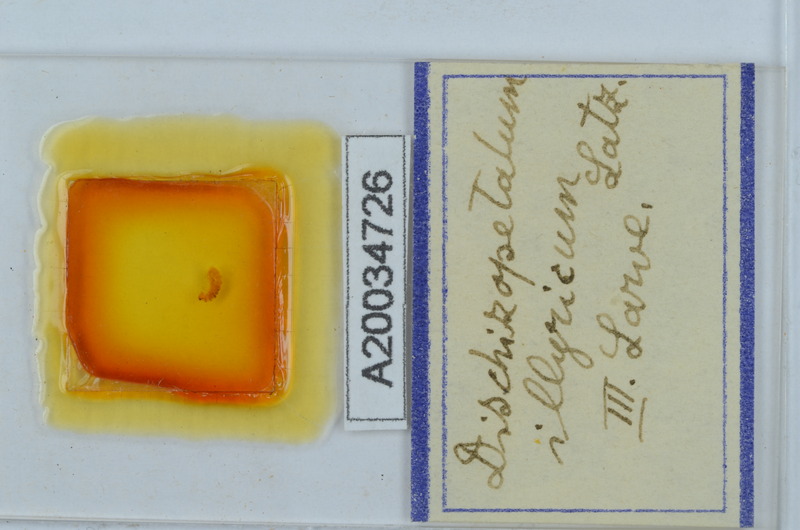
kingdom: Animalia
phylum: Arthropoda
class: Diplopoda
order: Callipodida
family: Schizopetalidae
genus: Dischizopetalum
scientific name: Dischizopetalum illyricum
